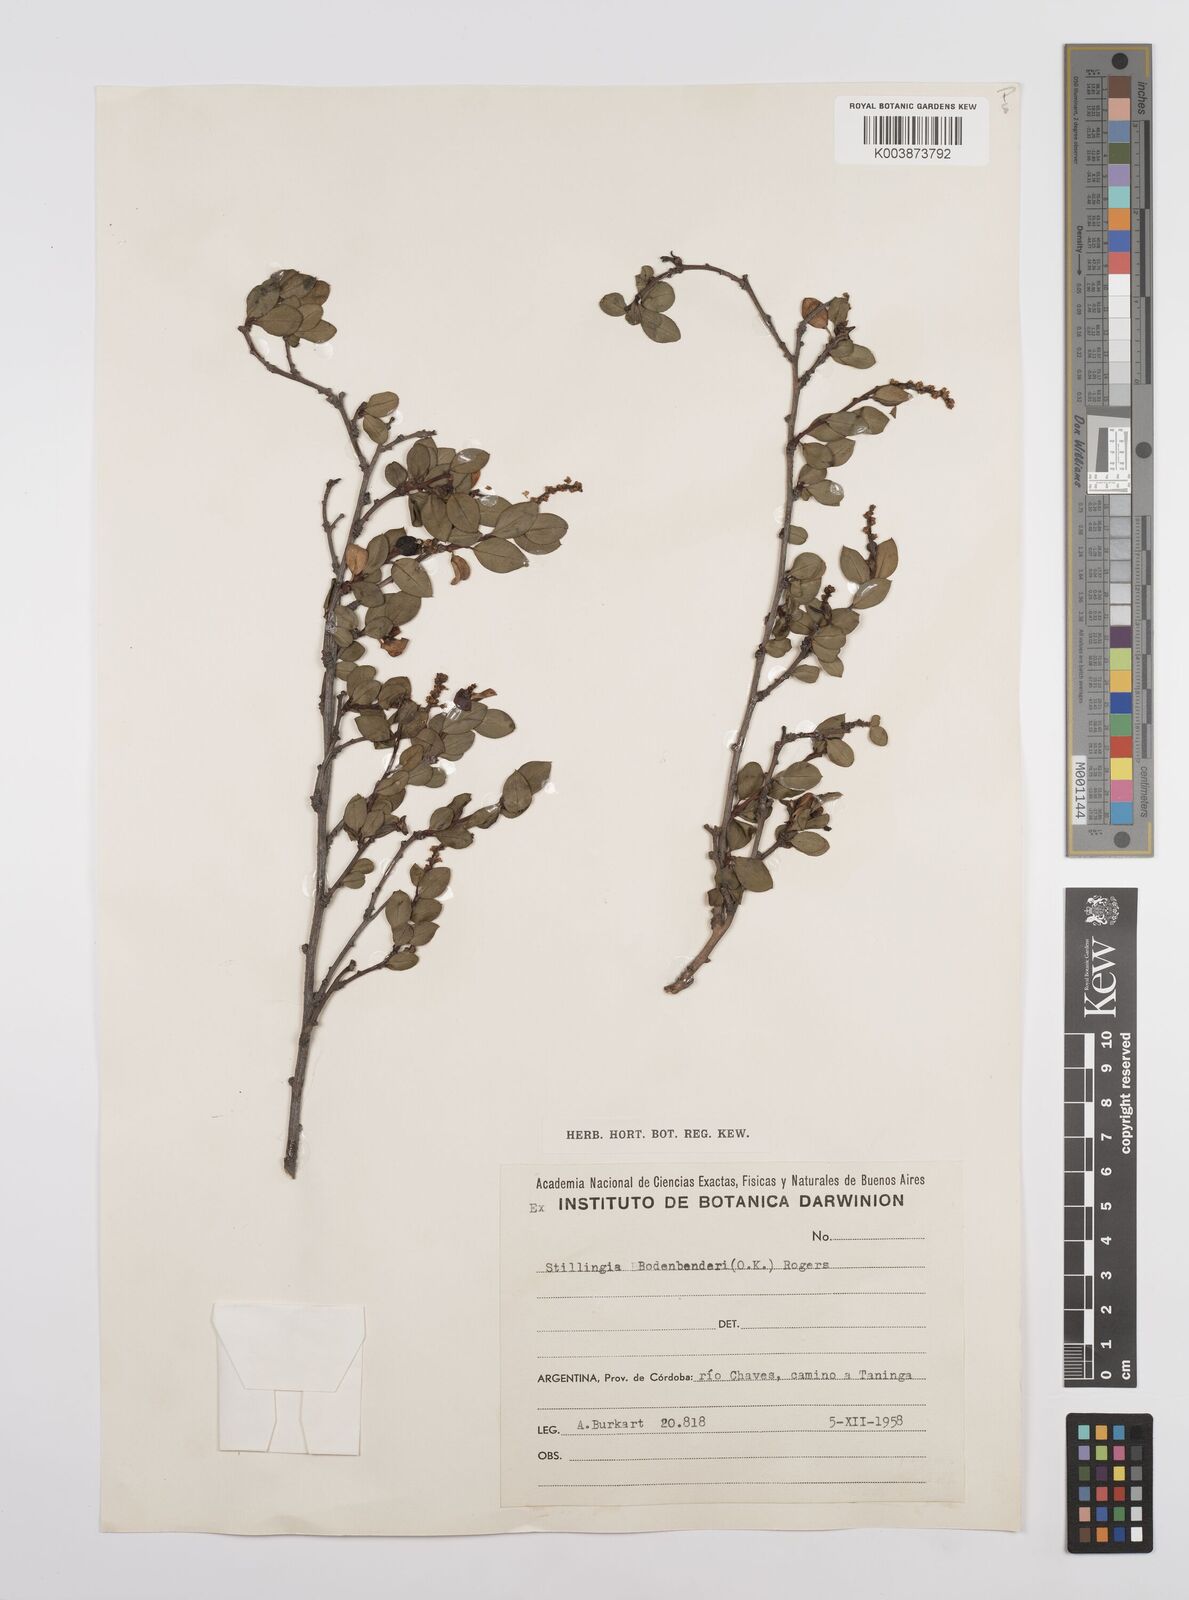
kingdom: Plantae
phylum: Tracheophyta
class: Magnoliopsida
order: Malpighiales
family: Euphorbiaceae
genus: Stillingia
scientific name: Stillingia bodenbenderi
